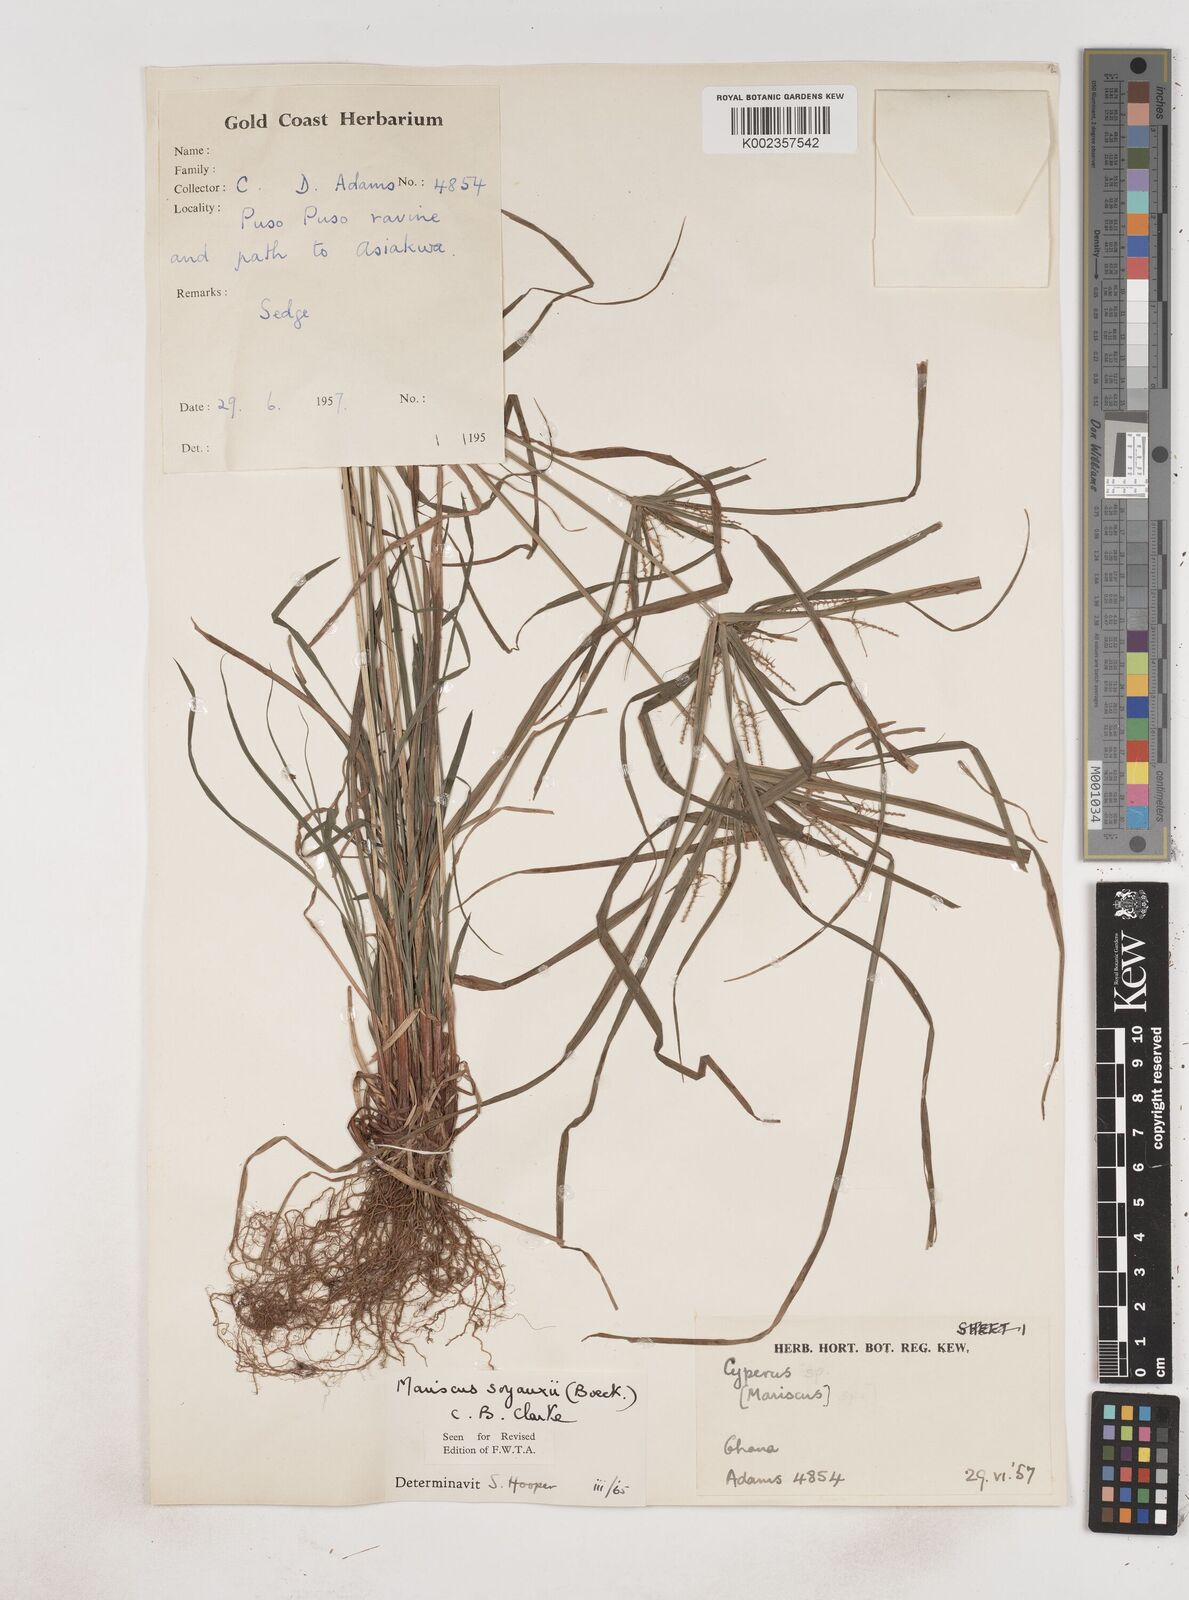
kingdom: Plantae
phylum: Tracheophyta
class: Liliopsida
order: Poales
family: Cyperaceae
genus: Cyperus
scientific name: Cyperus soyauxii
